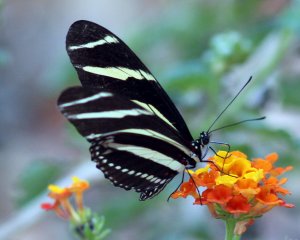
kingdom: Animalia
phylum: Arthropoda
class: Insecta
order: Lepidoptera
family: Nymphalidae
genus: Heliconius
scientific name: Heliconius charithonia
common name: Zebra Longwing
